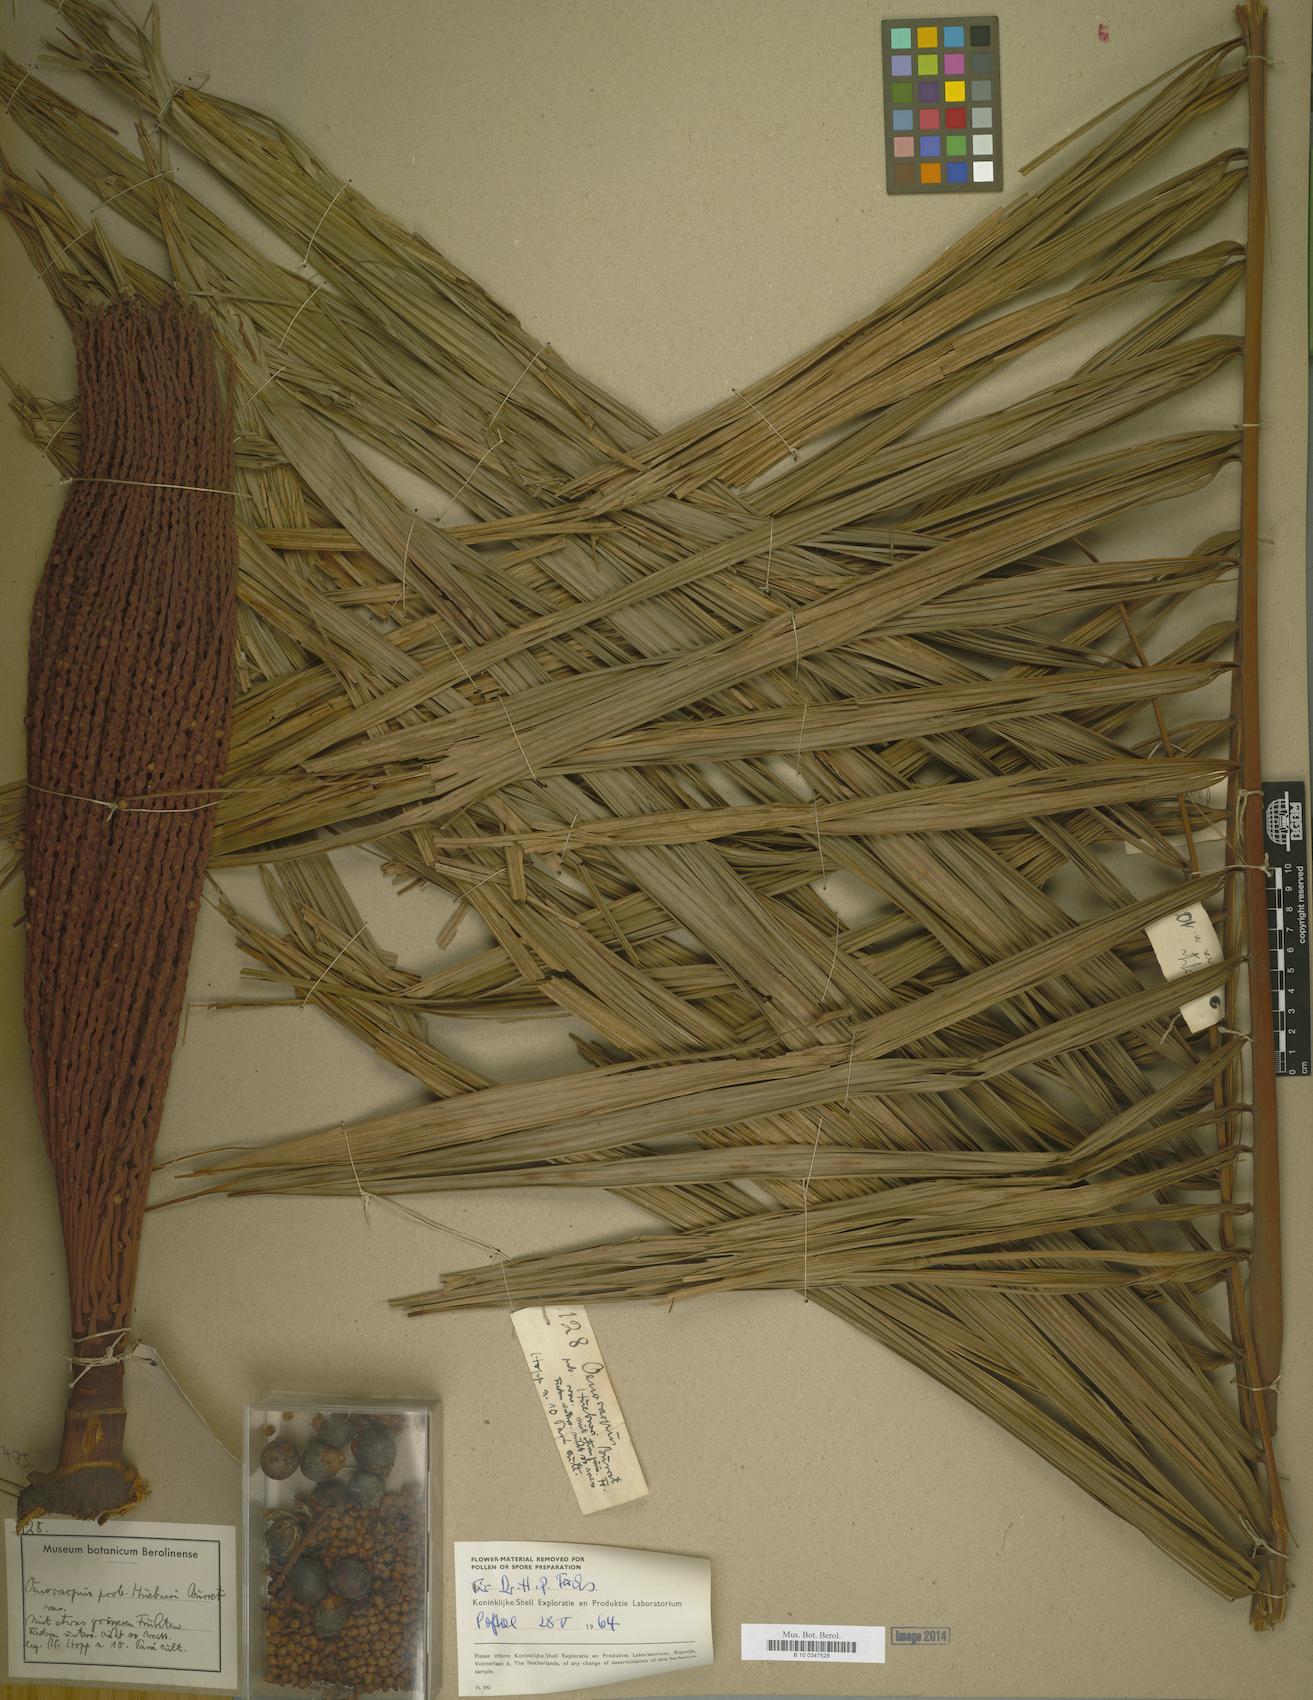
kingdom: Plantae
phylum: Tracheophyta
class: Liliopsida
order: Arecales
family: Arecaceae
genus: Oenocarpus
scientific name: Oenocarpus minor
